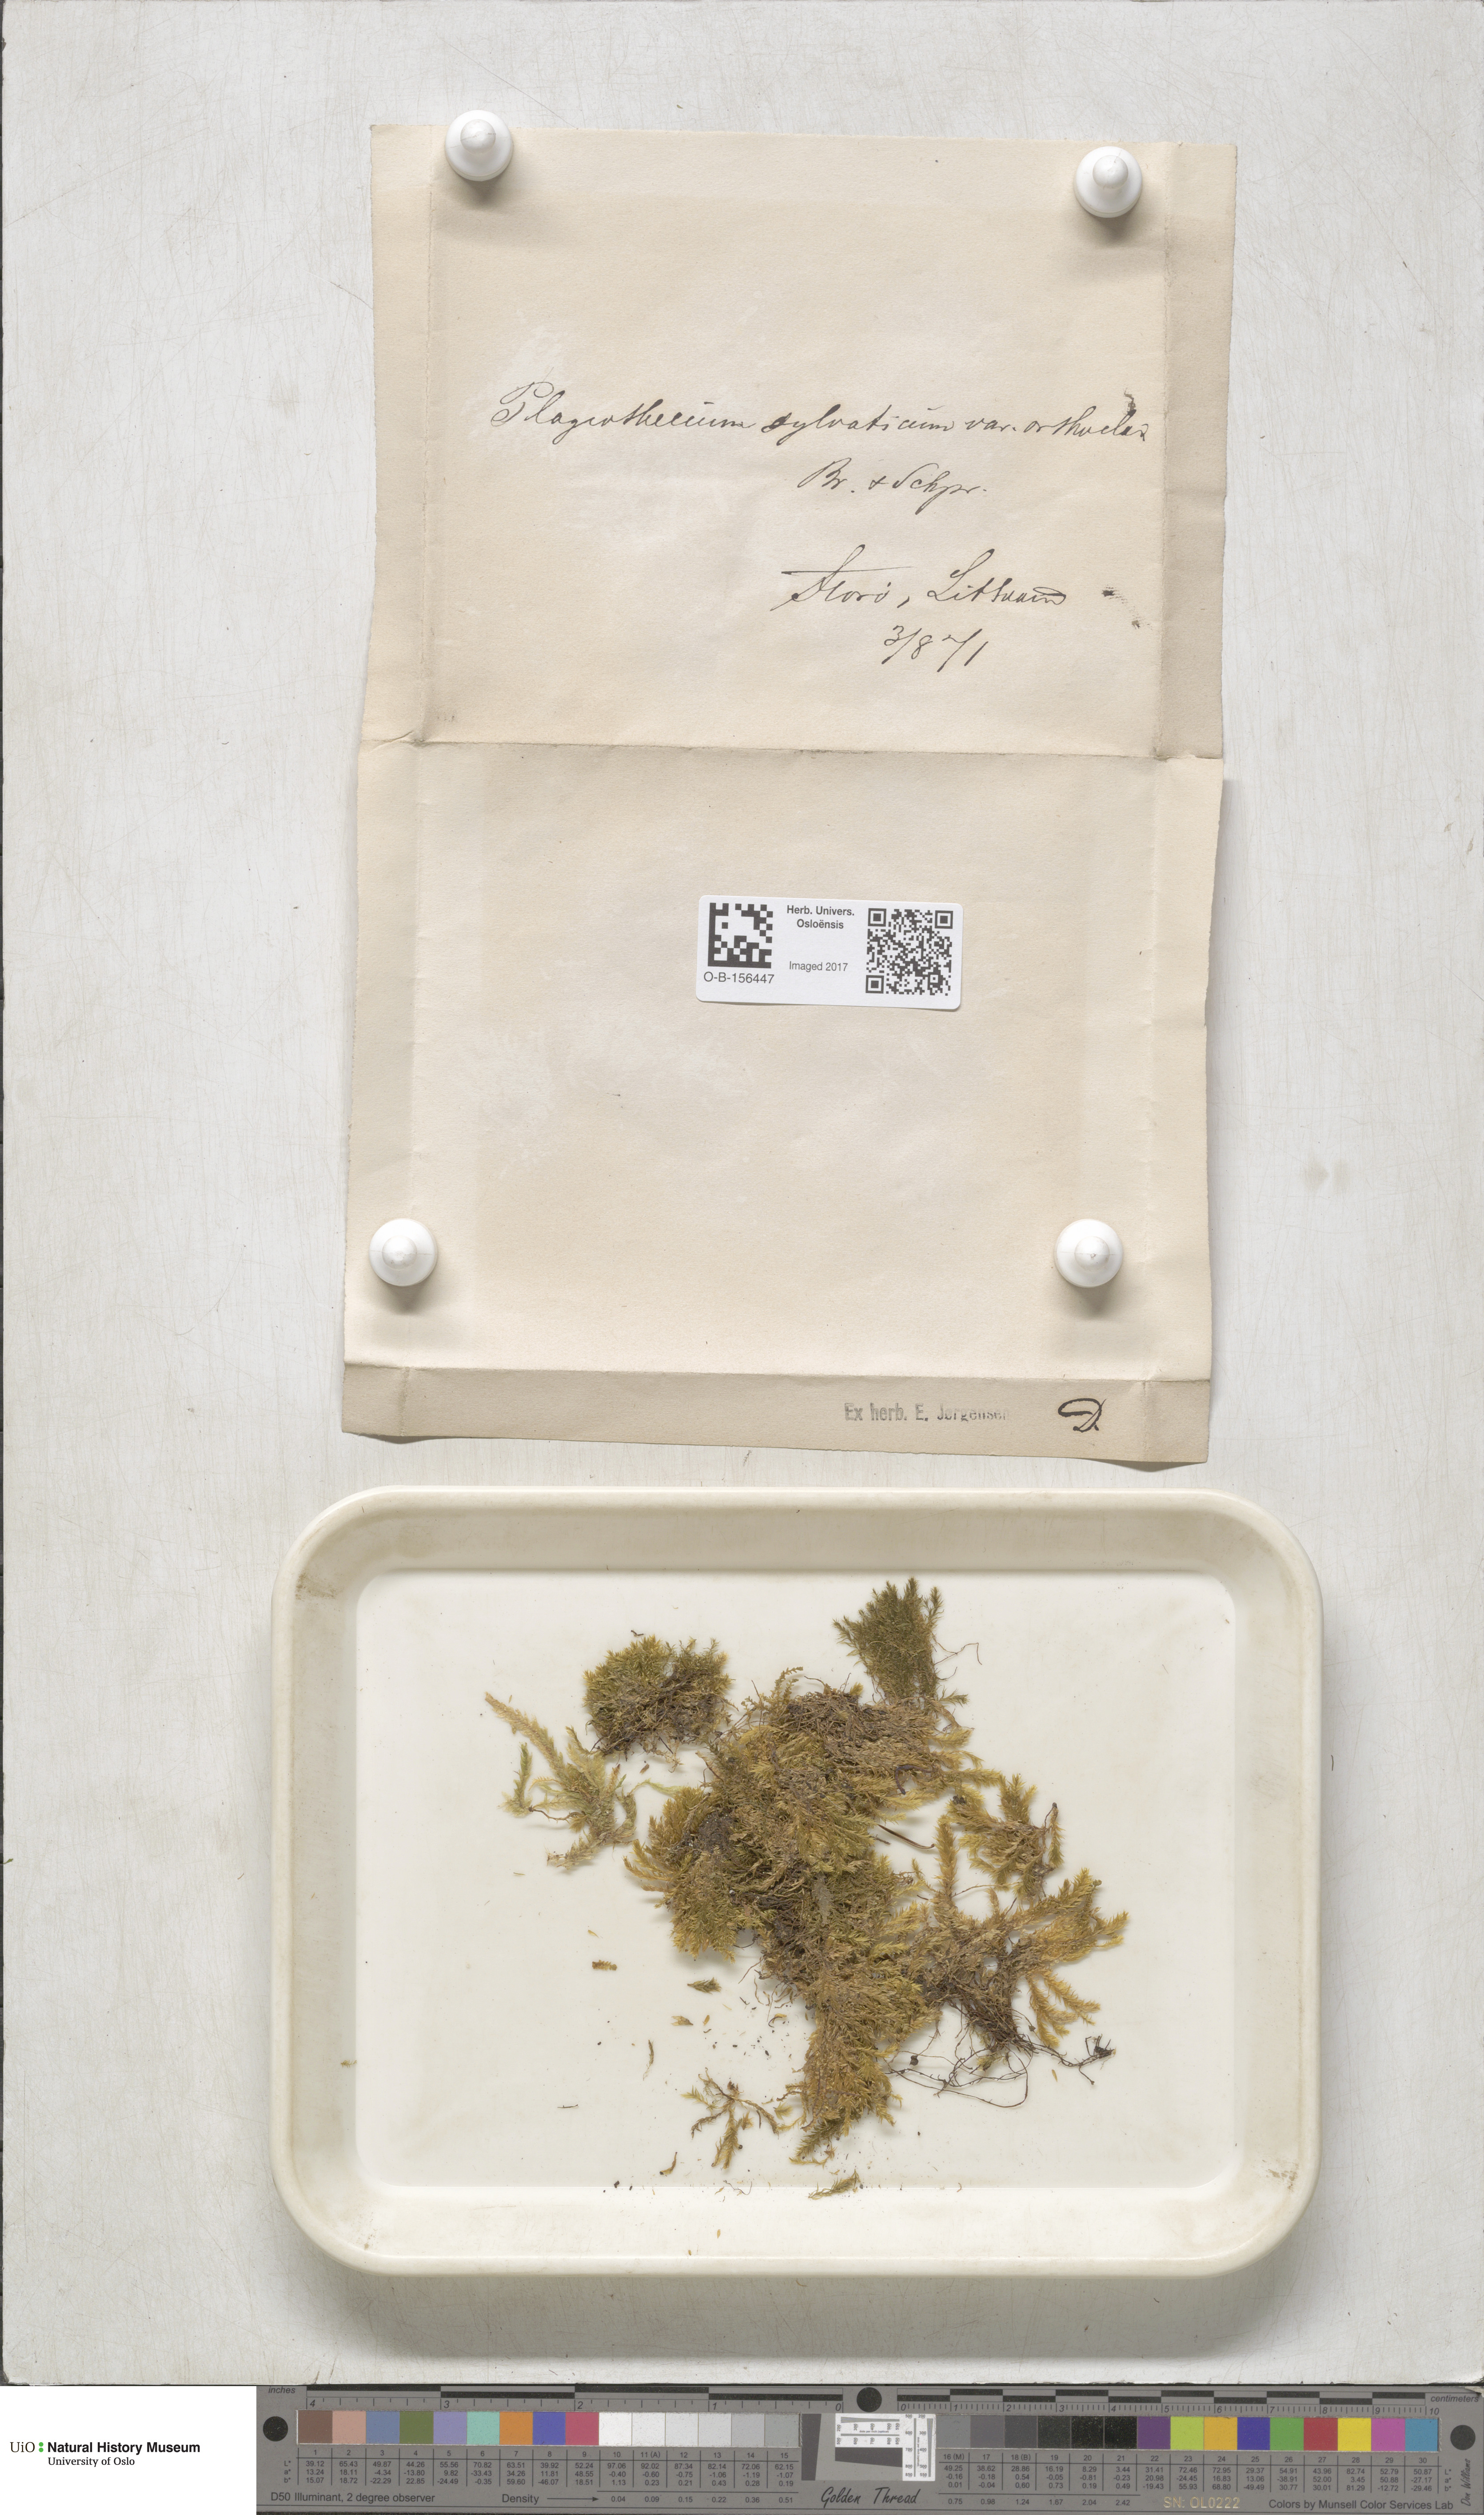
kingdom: Plantae
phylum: Bryophyta
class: Bryopsida
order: Hypnales
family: Plagiotheciaceae
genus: Plagiothecium
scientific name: Plagiothecium nemorale
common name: Woodsy silk-moss
